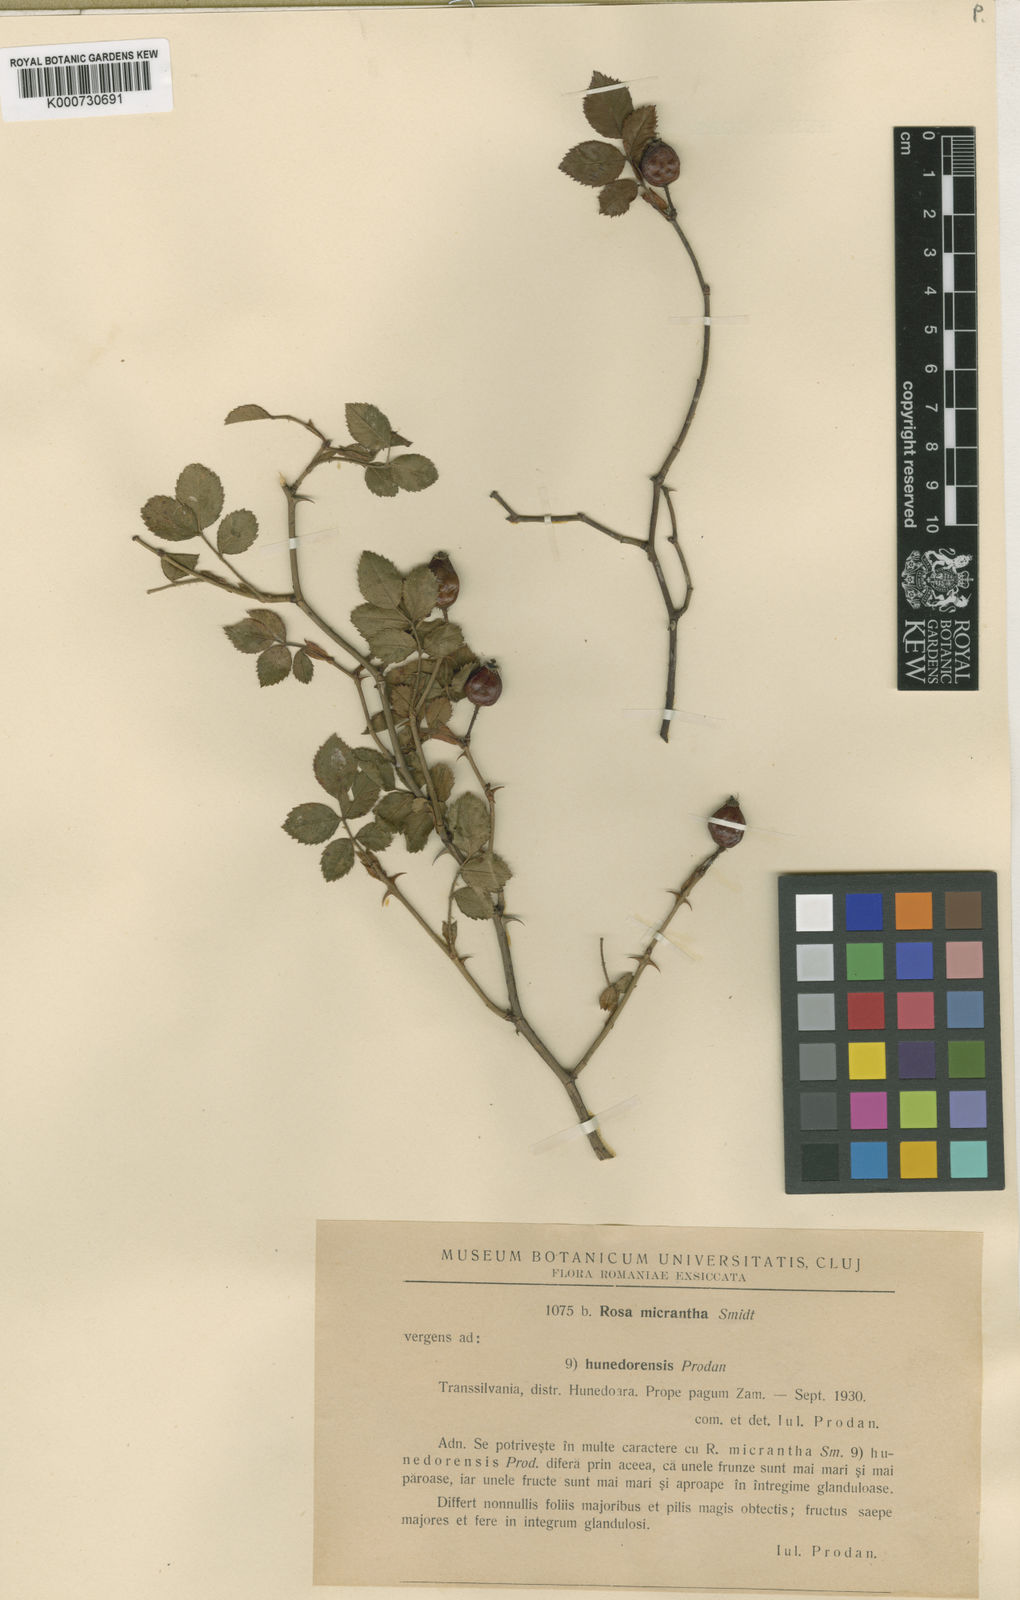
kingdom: Plantae
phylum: Tracheophyta
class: Magnoliopsida
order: Rosales
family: Rosaceae
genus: Rosa
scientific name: Rosa
